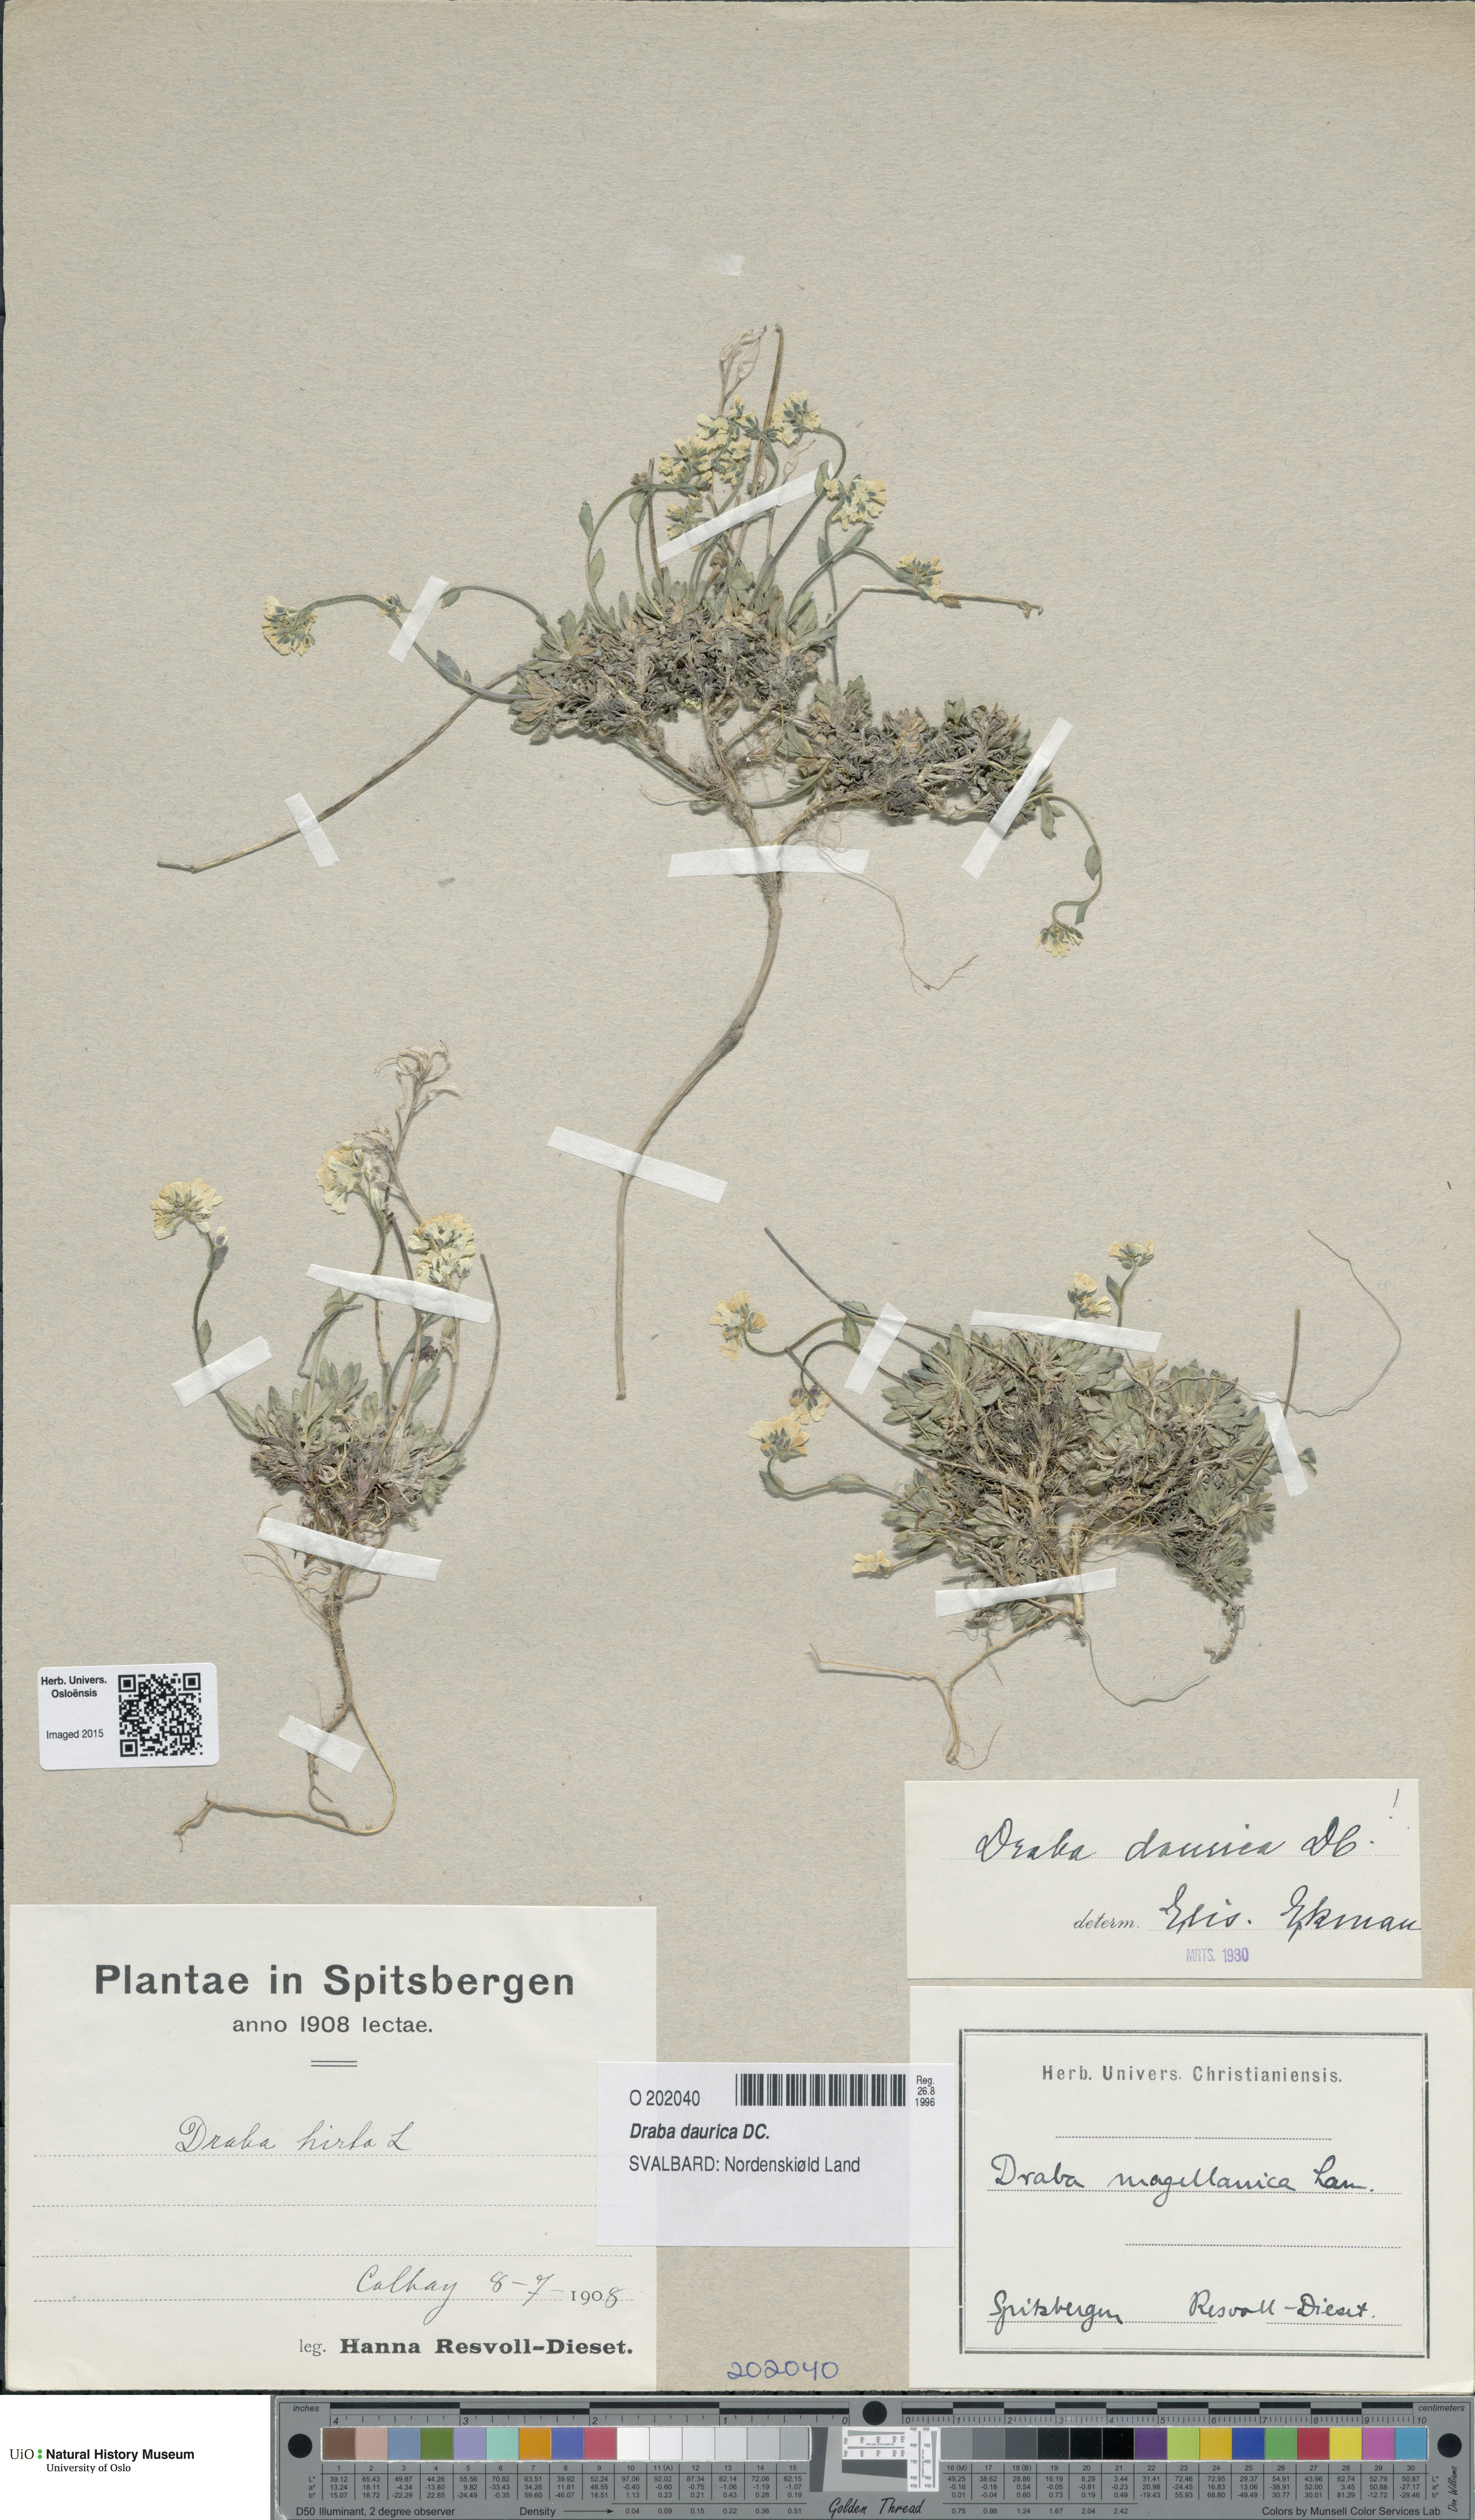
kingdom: Plantae
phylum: Tracheophyta
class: Magnoliopsida
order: Brassicales
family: Brassicaceae
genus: Draba
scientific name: Draba glabella
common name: Glaucous draba
